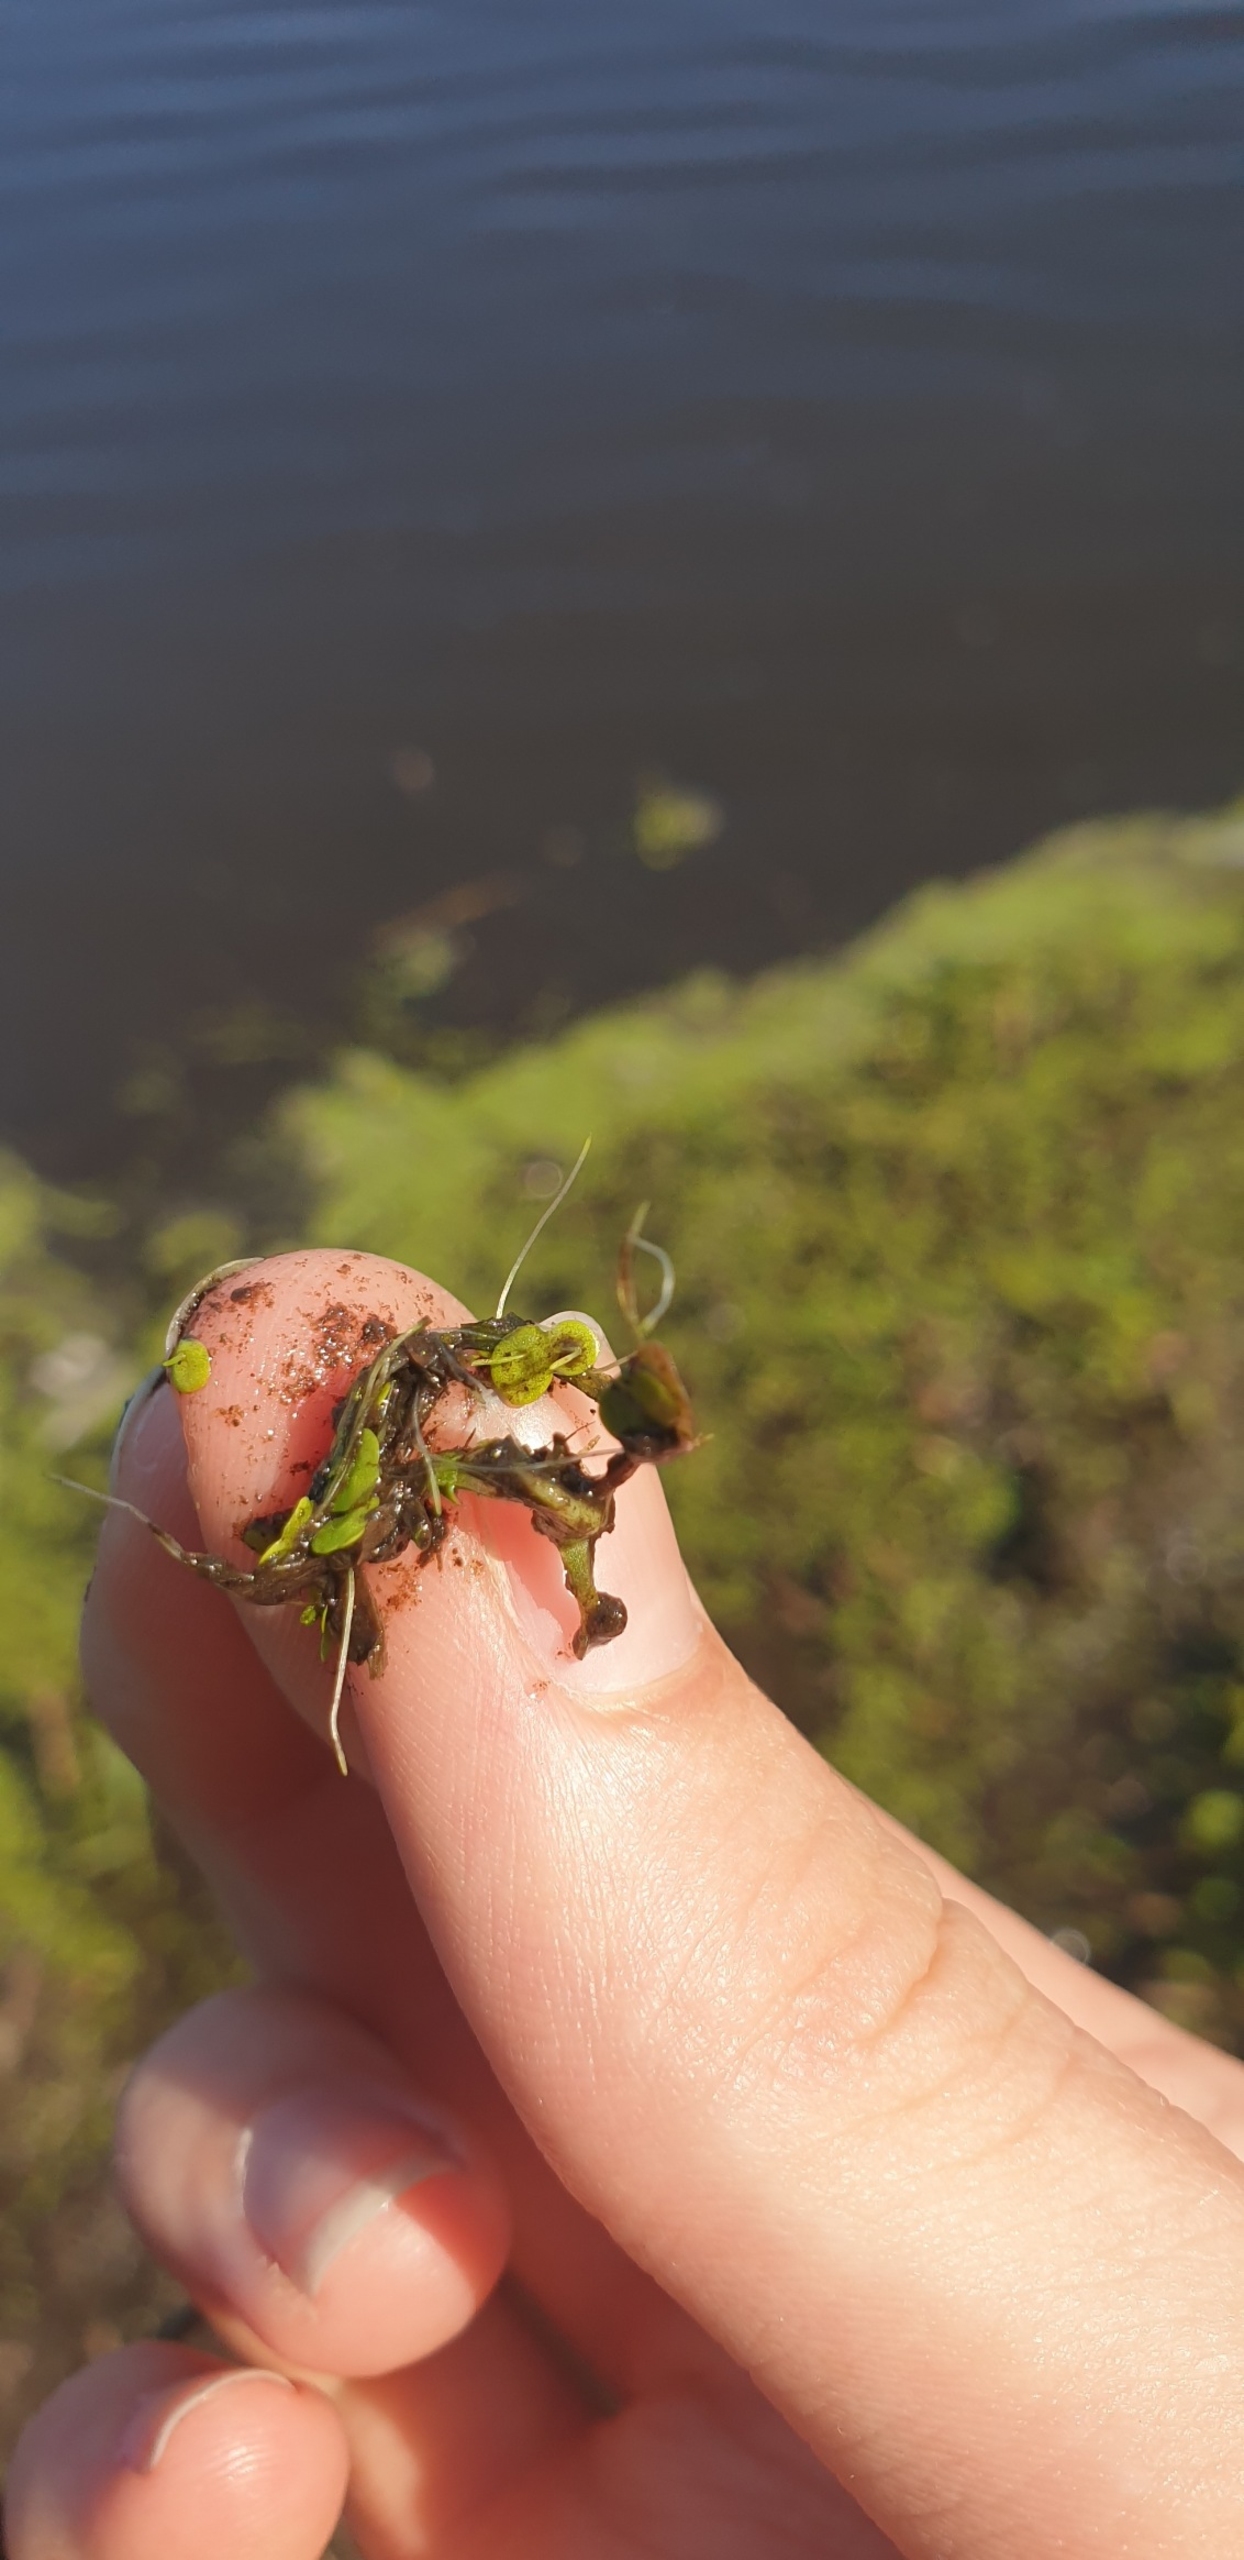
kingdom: Plantae
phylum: Tracheophyta
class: Liliopsida
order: Alismatales
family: Araceae
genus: Lemna
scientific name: Lemna minor
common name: Liden andemad
